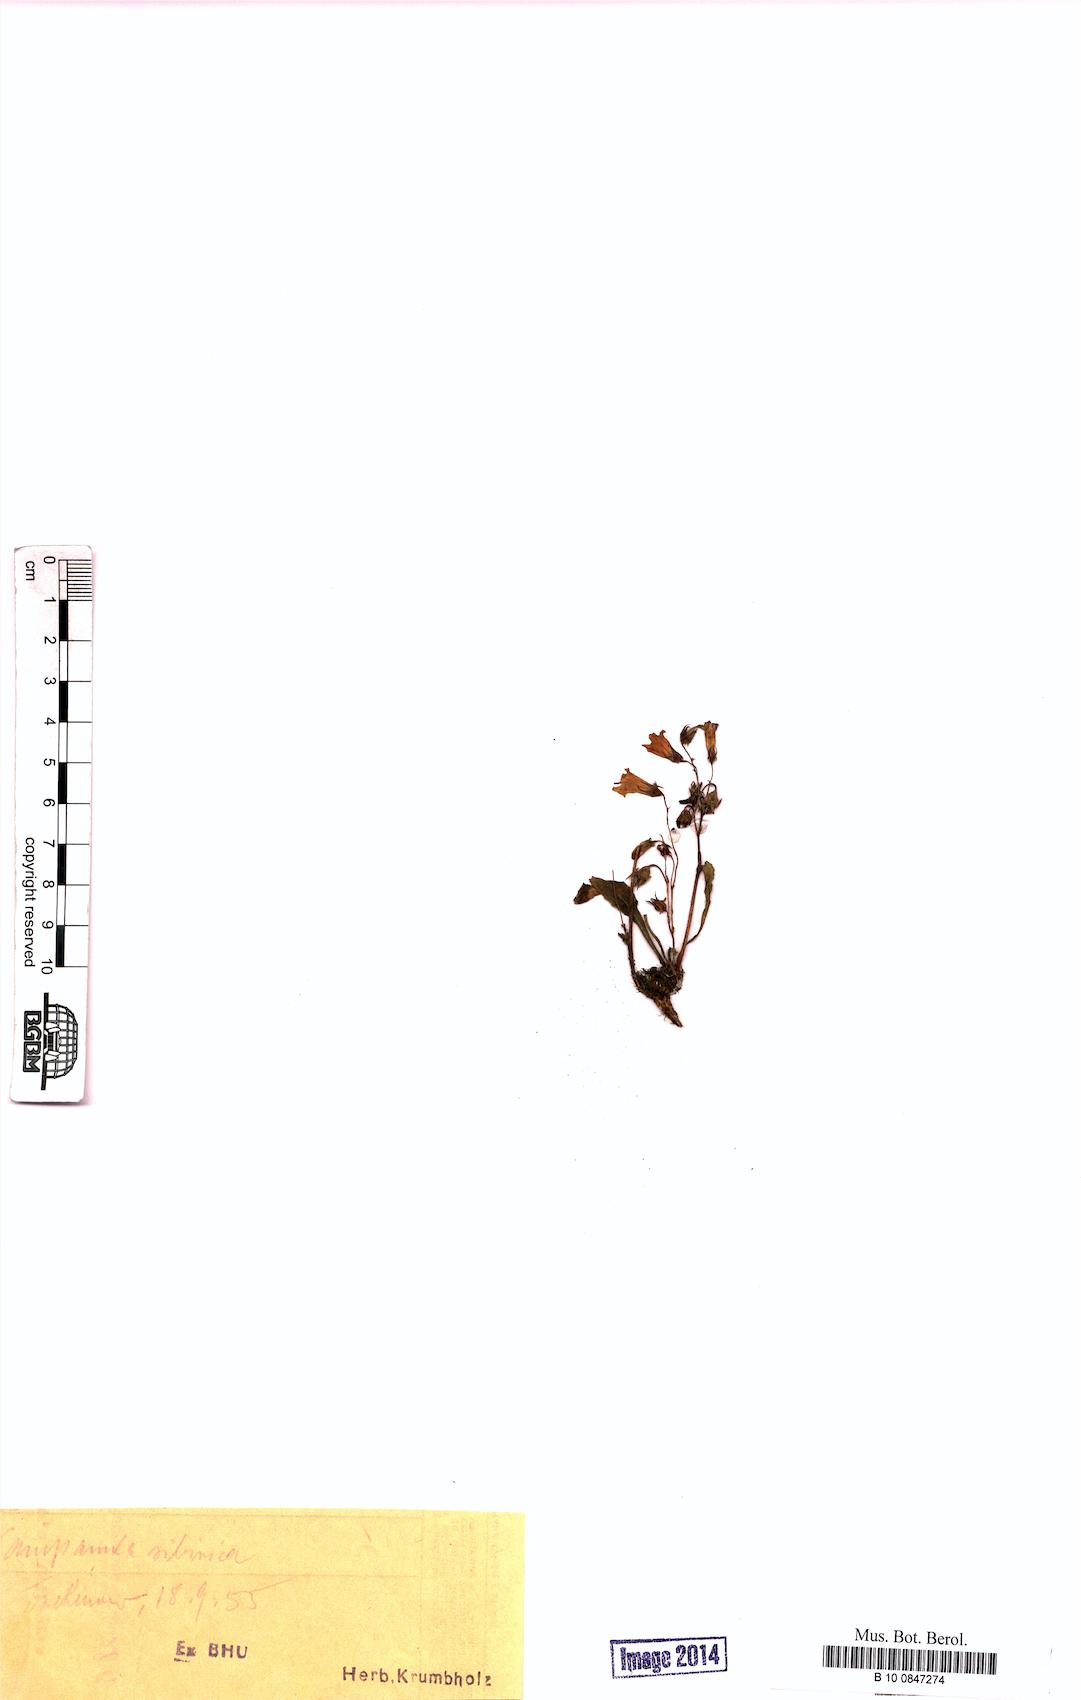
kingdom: Plantae
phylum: Tracheophyta
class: Magnoliopsida
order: Asterales
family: Campanulaceae
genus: Campanula
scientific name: Campanula sibirica
